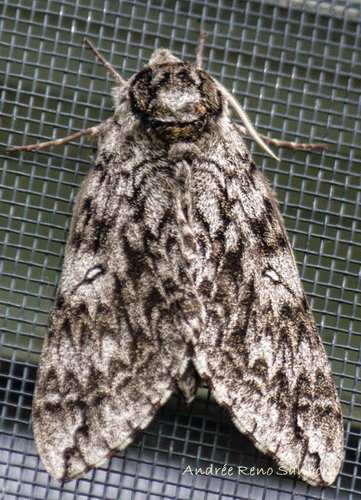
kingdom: Animalia
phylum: Arthropoda
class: Insecta
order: Lepidoptera
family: Sphingidae
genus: Ceratomia
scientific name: Ceratomia undulosa
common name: Waved sphinx
